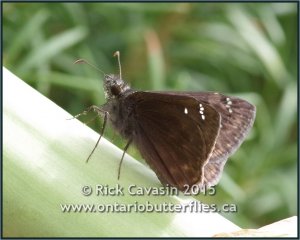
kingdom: Animalia
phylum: Arthropoda
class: Insecta
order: Lepidoptera
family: Hesperiidae
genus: Gesta
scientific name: Gesta
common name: Horace's Duskywing
